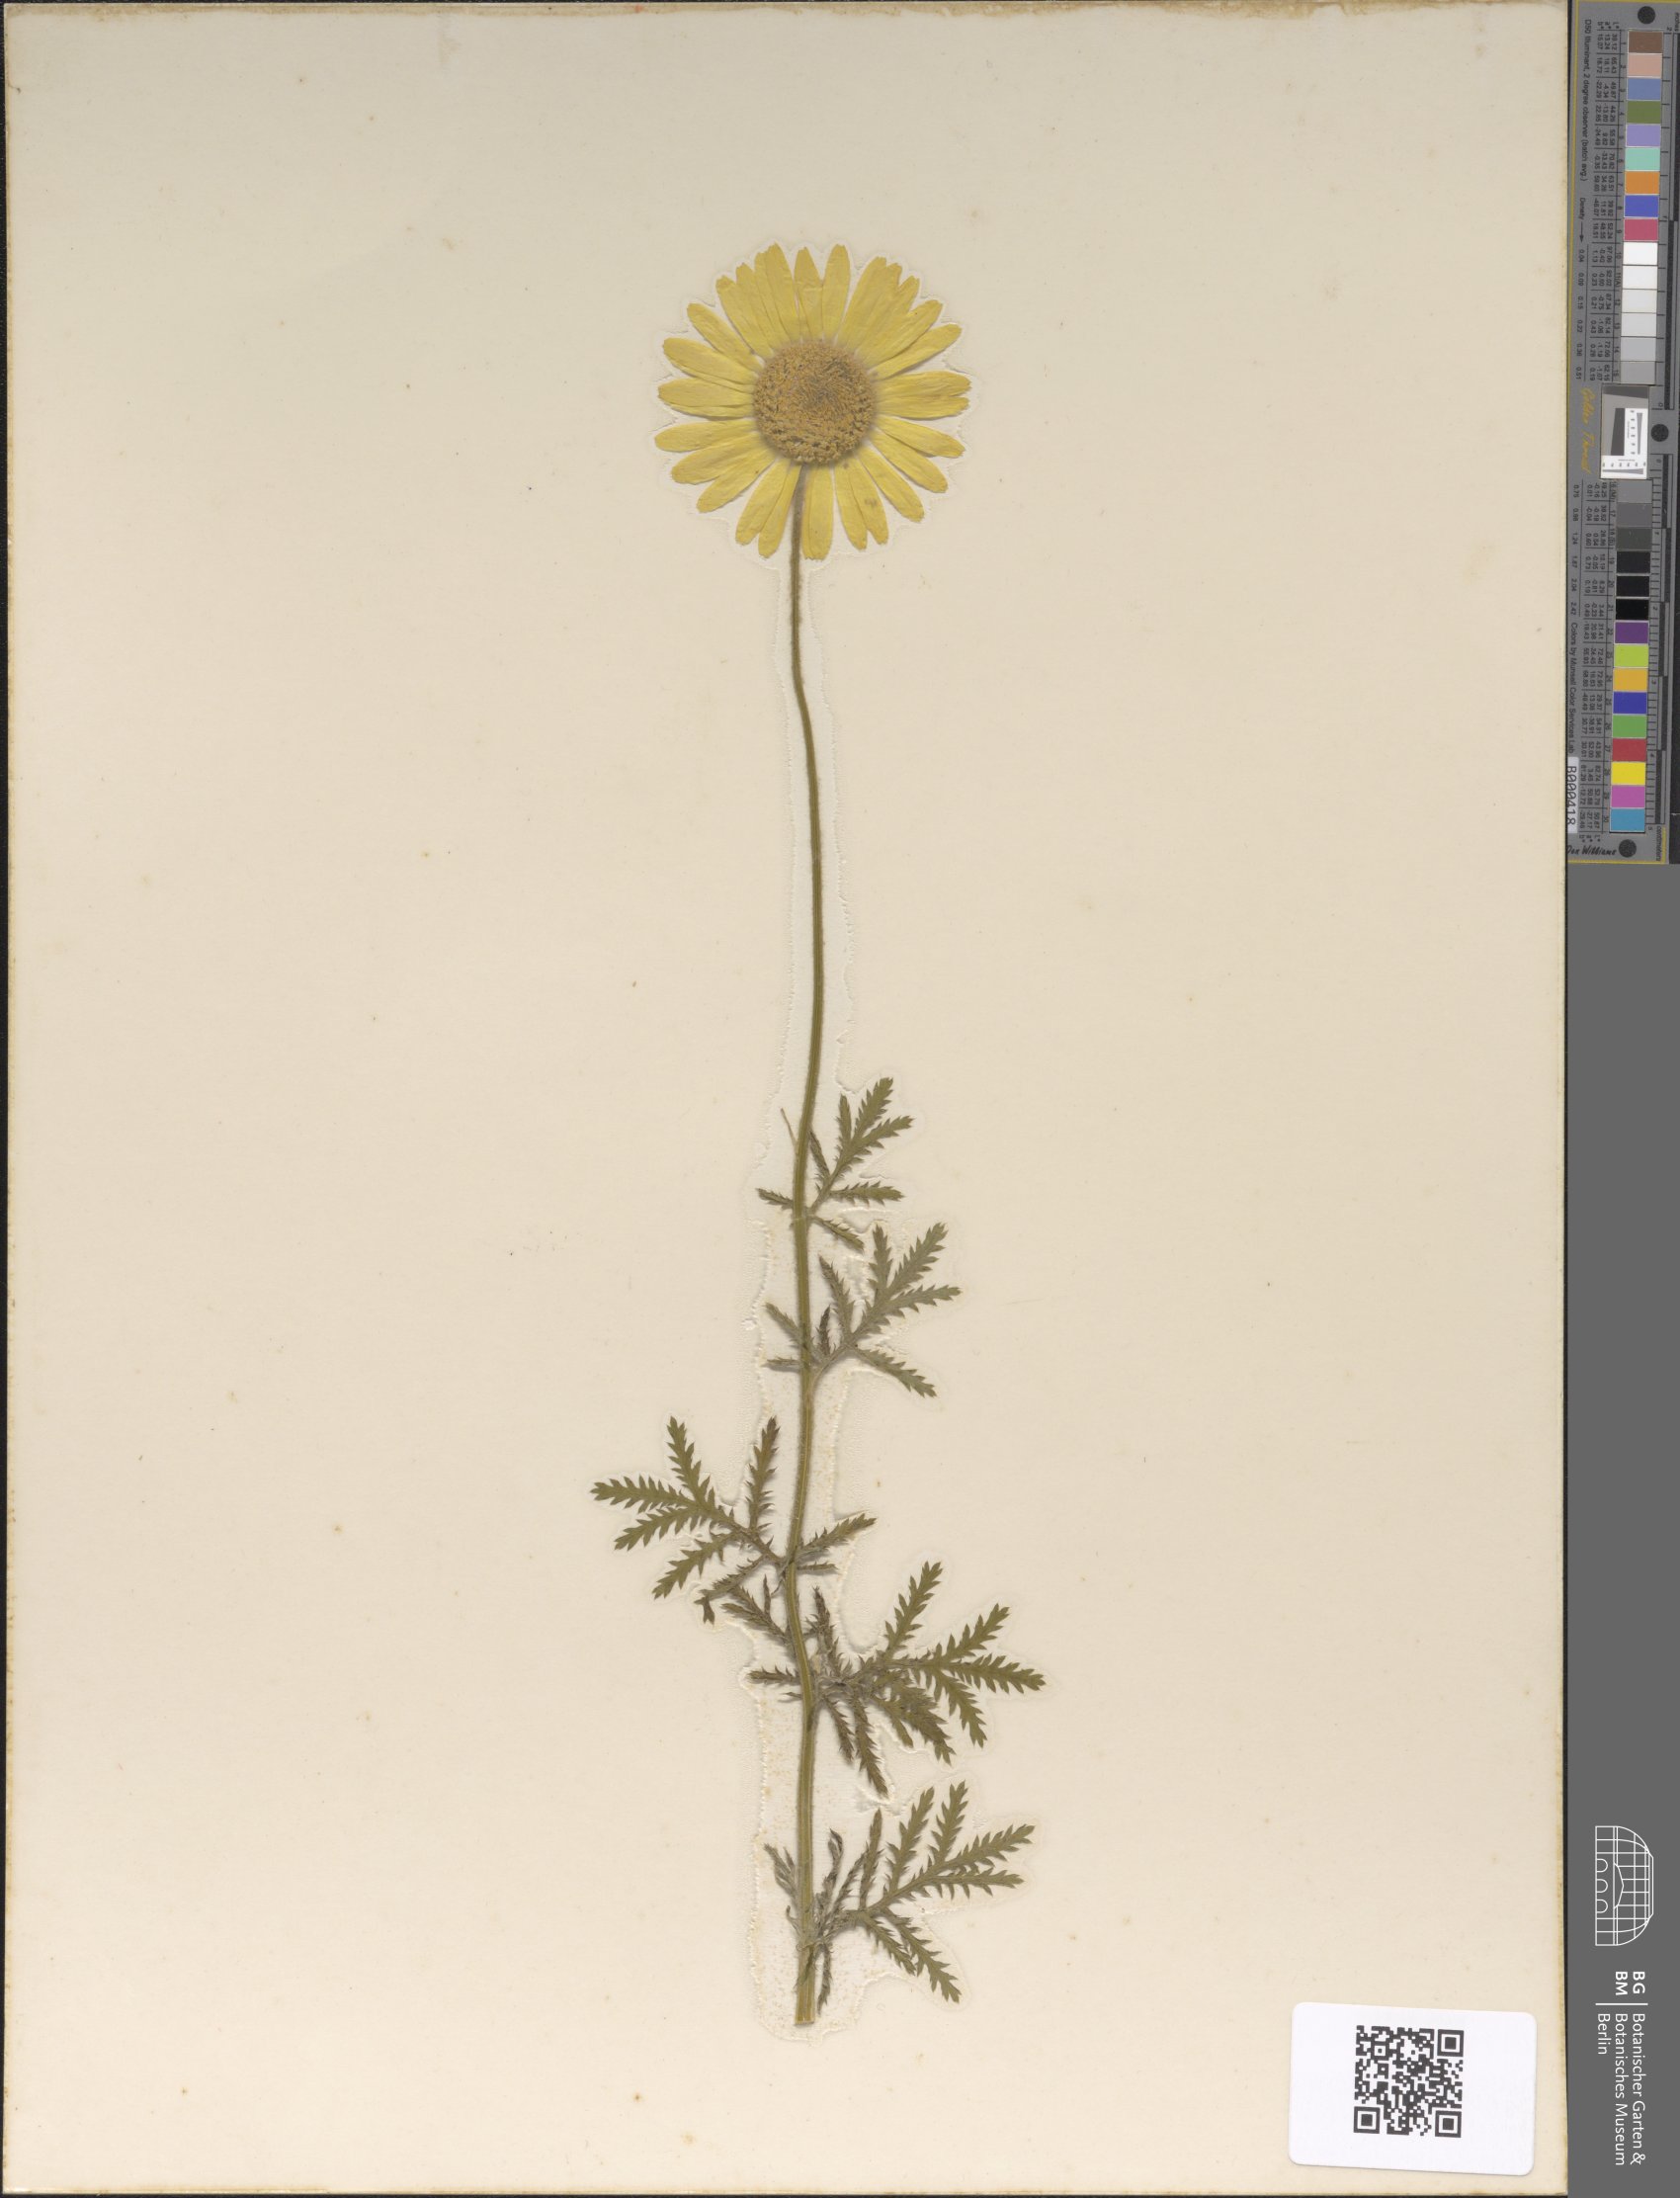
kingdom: Plantae
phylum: Tracheophyta
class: Magnoliopsida
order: Asterales
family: Asteraceae
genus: Cota
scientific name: Cota tinctoria
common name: Golden chamomile
